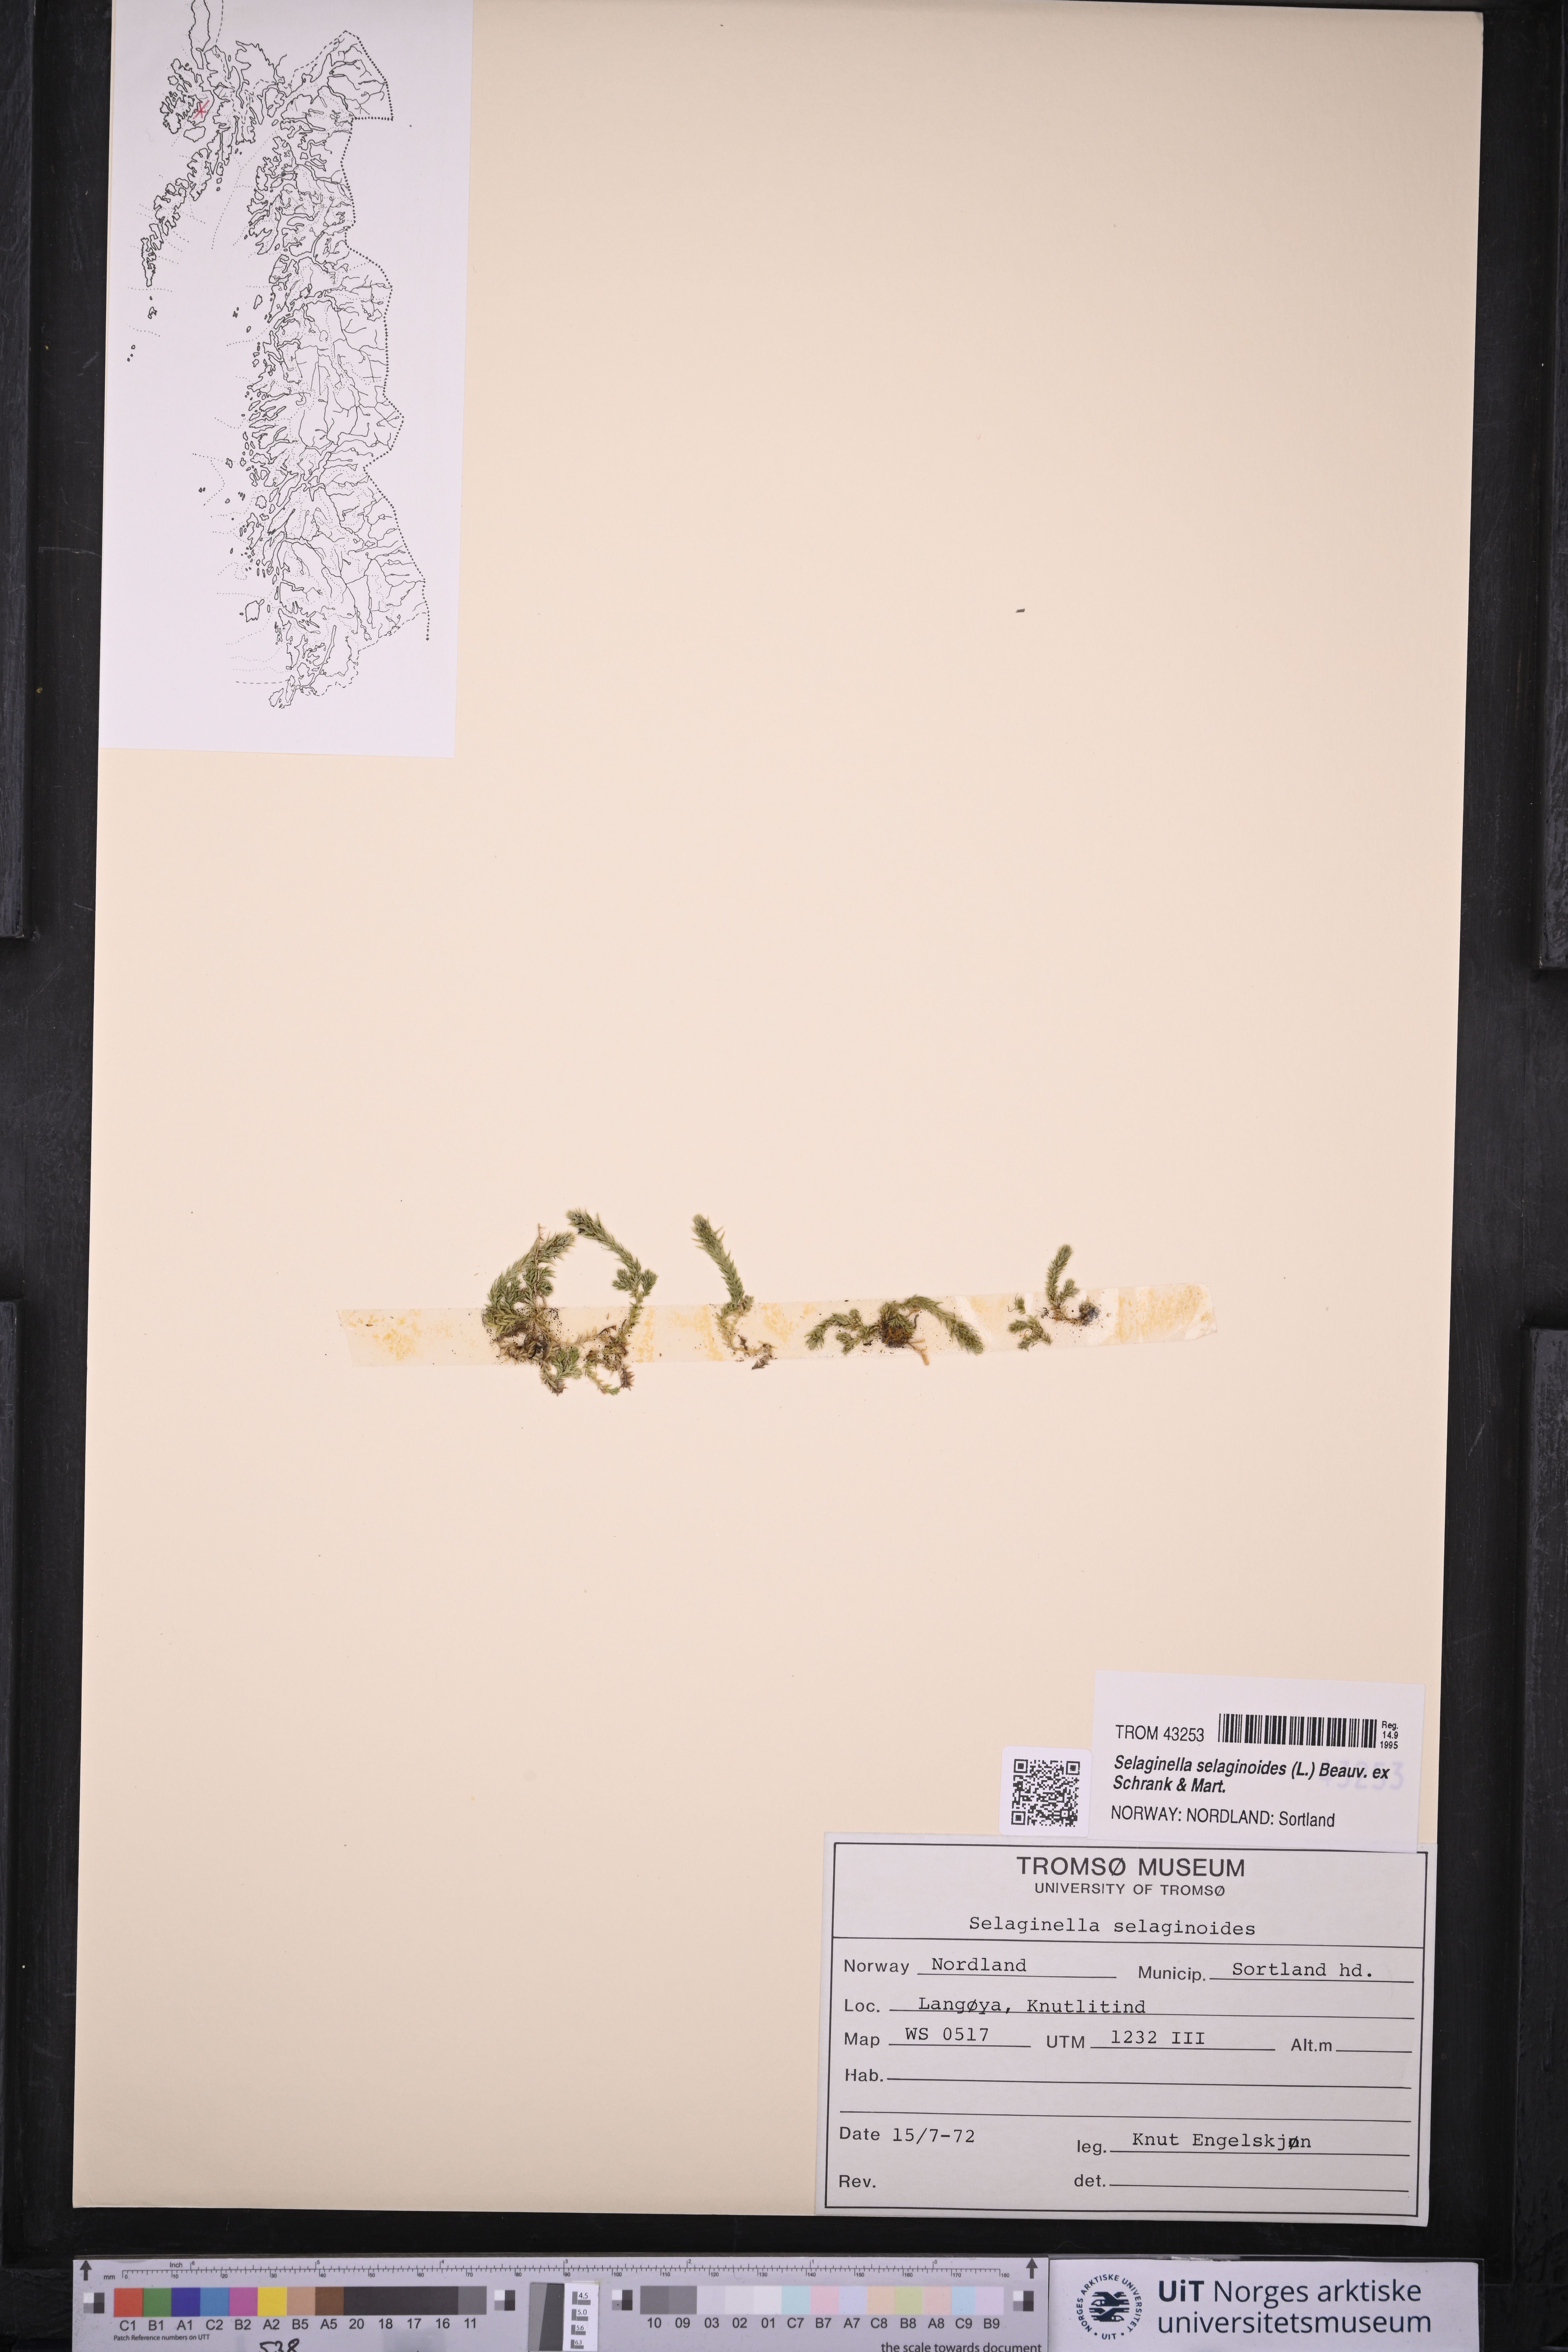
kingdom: Plantae
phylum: Tracheophyta
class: Lycopodiopsida
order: Selaginellales
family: Selaginellaceae
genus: Selaginella
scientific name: Selaginella selaginoides
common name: Prickly mountain-moss
